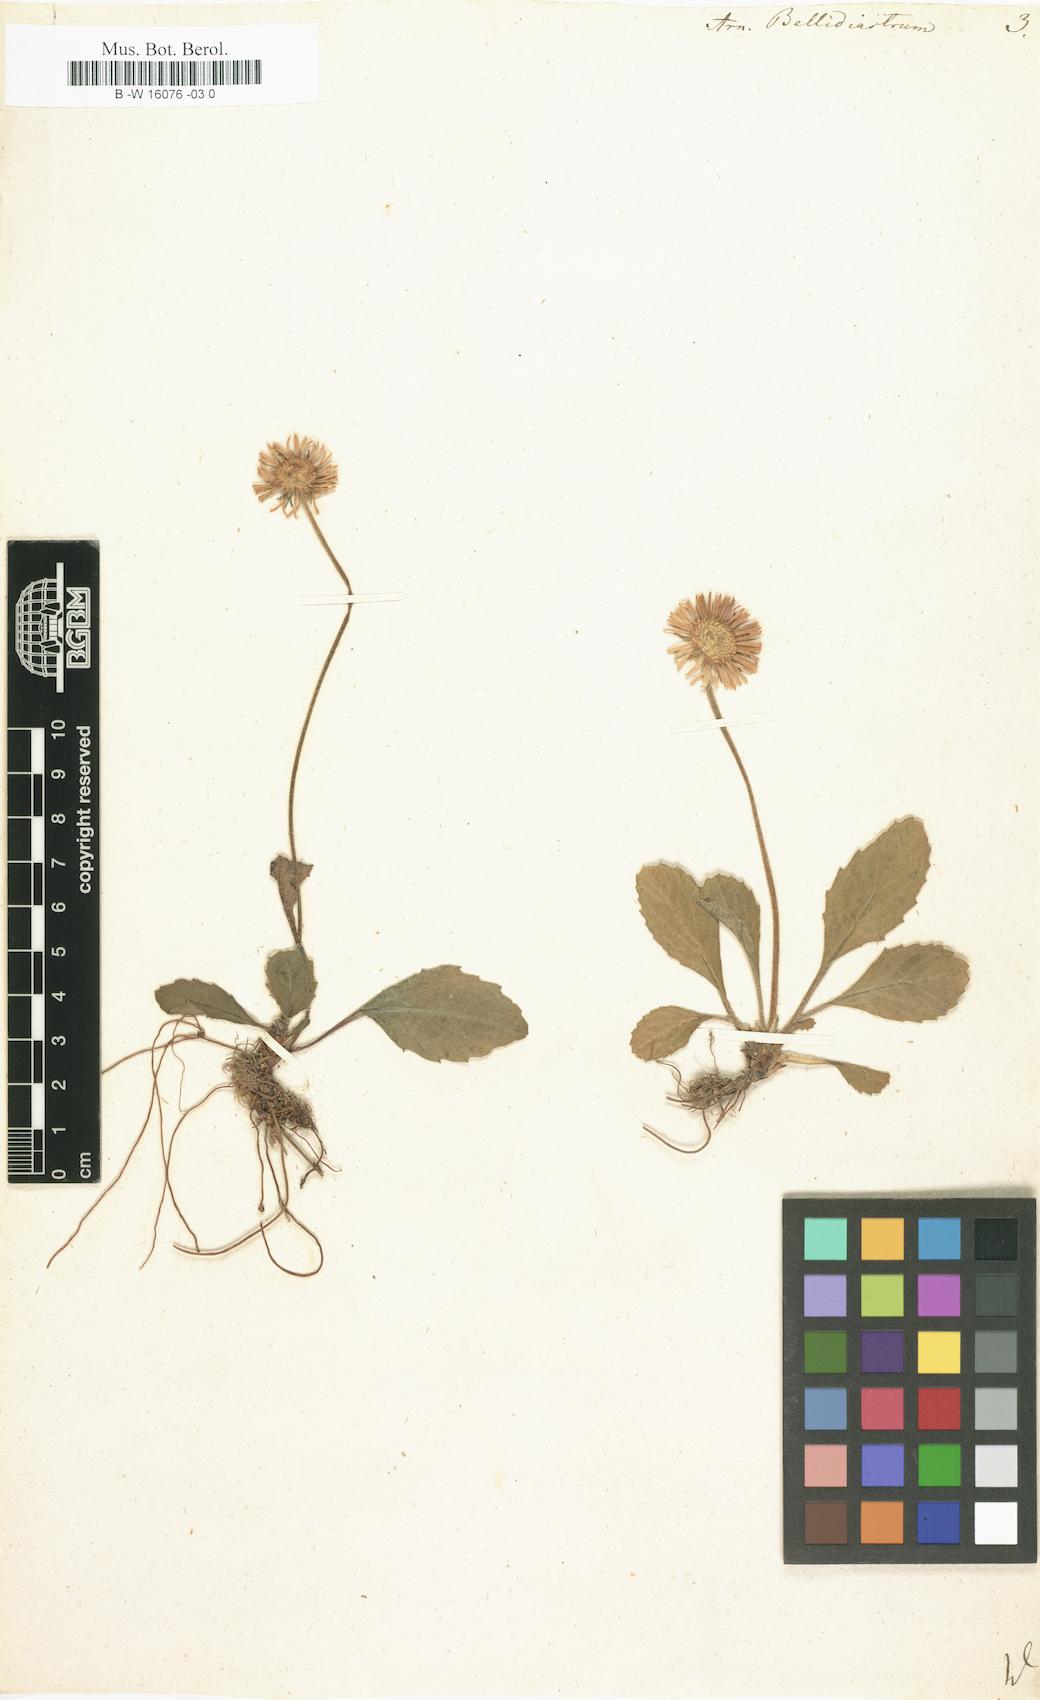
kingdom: Plantae
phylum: Tracheophyta
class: Magnoliopsida
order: Asterales
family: Asteraceae
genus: Bellidiastrum
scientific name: Bellidiastrum michelii
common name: Daisy-star aster
